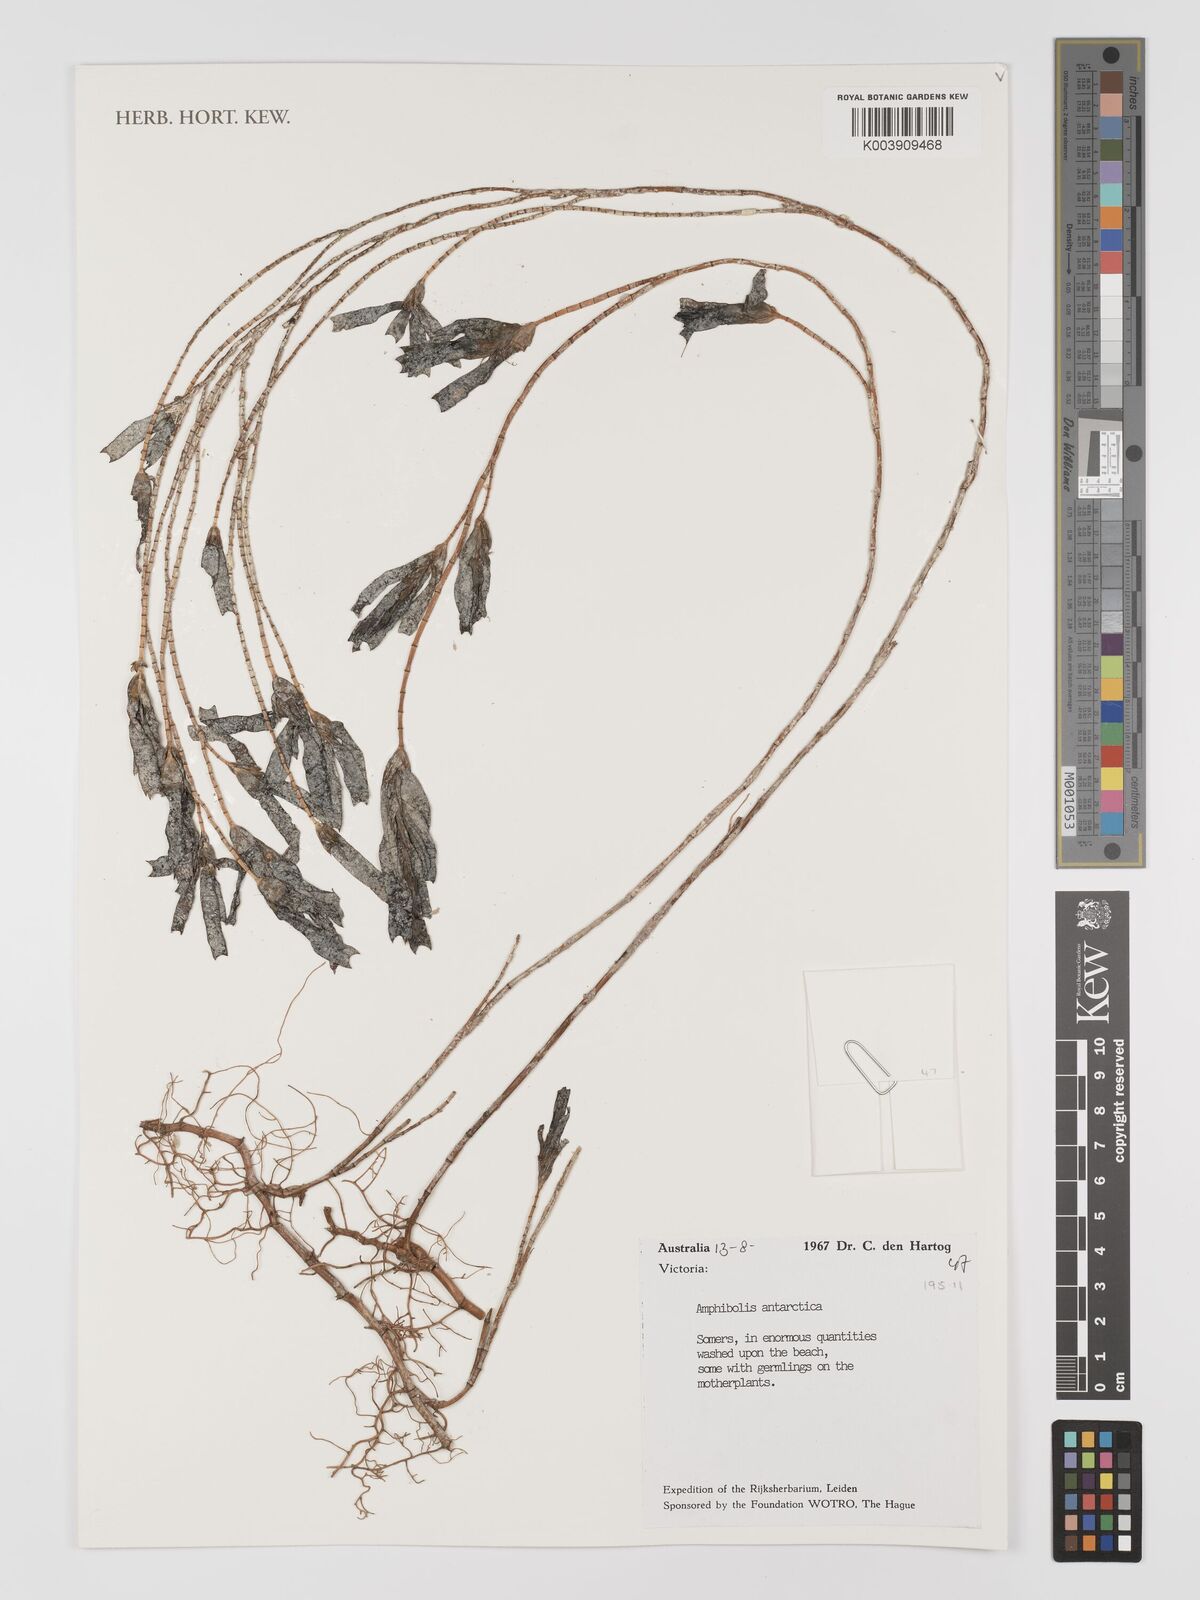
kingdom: Plantae
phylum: Tracheophyta
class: Liliopsida
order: Alismatales
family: Cymodoceaceae
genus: Amphibolis
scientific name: Amphibolis antarctica
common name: Species code: aa
